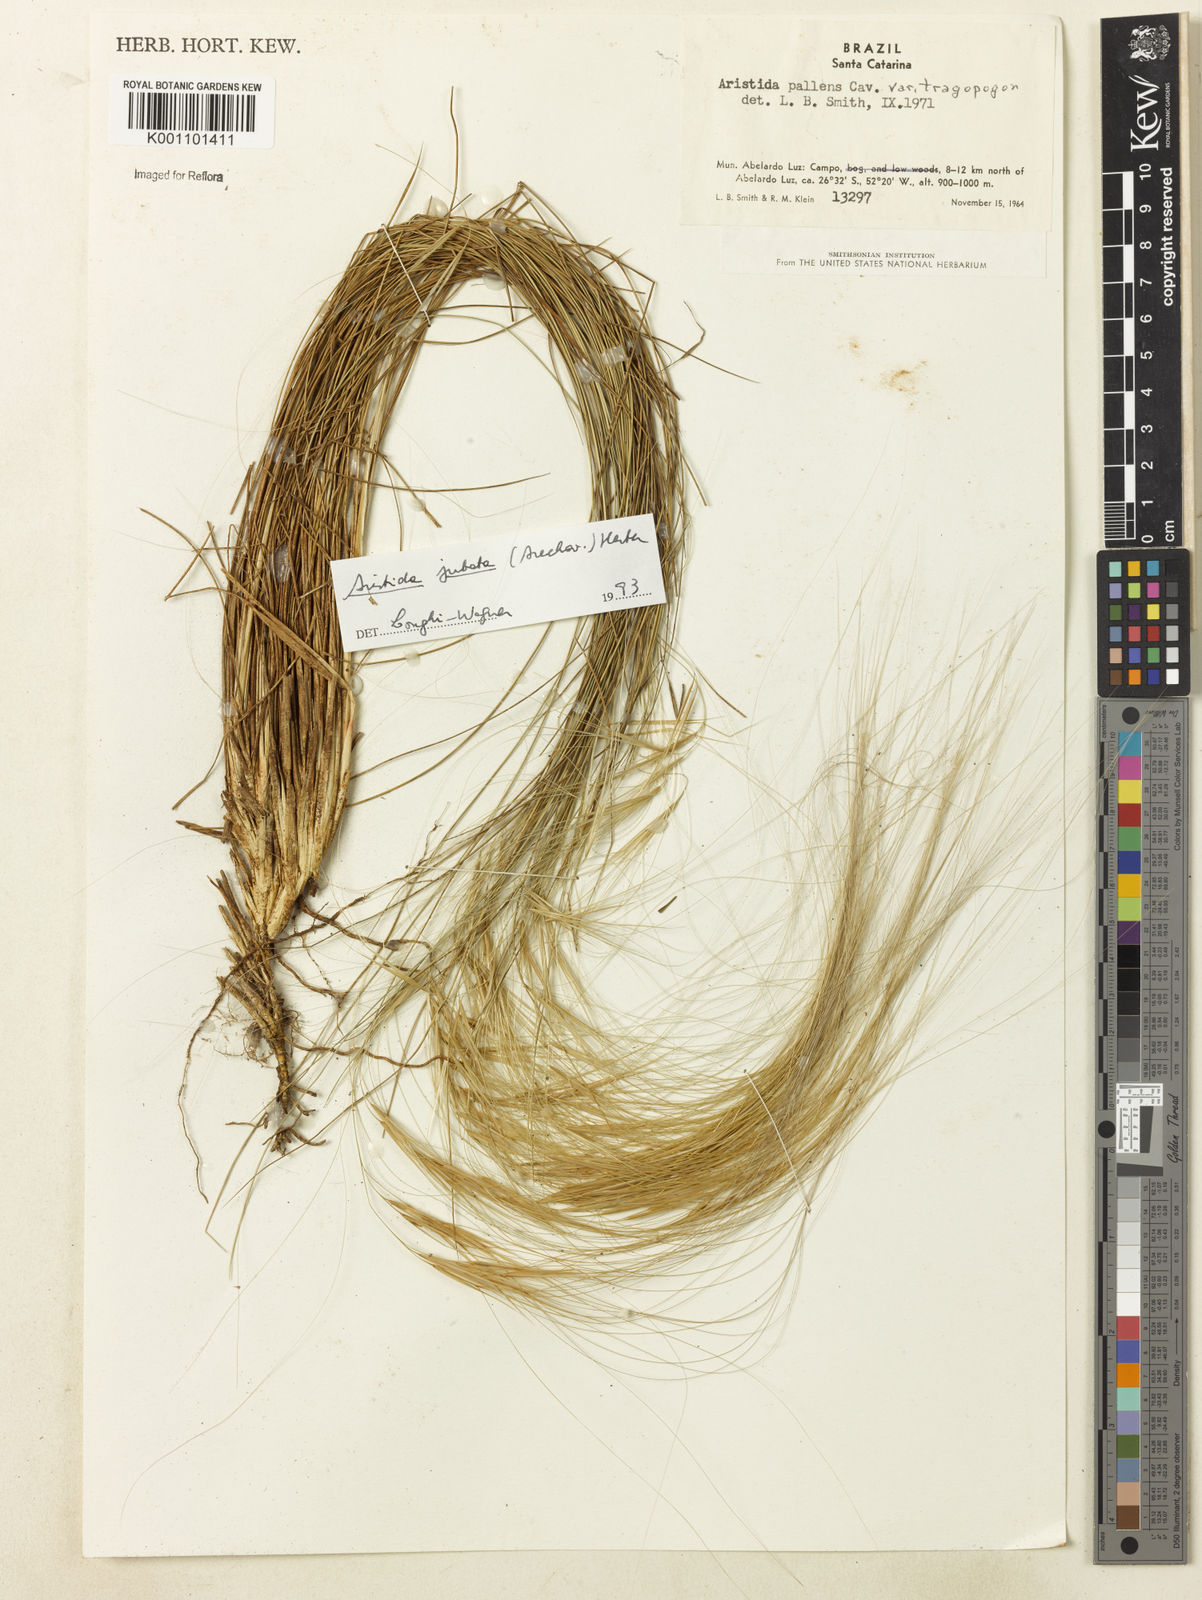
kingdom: Plantae
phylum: Tracheophyta
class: Liliopsida
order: Poales
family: Poaceae
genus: Aristida
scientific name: Aristida jubata
